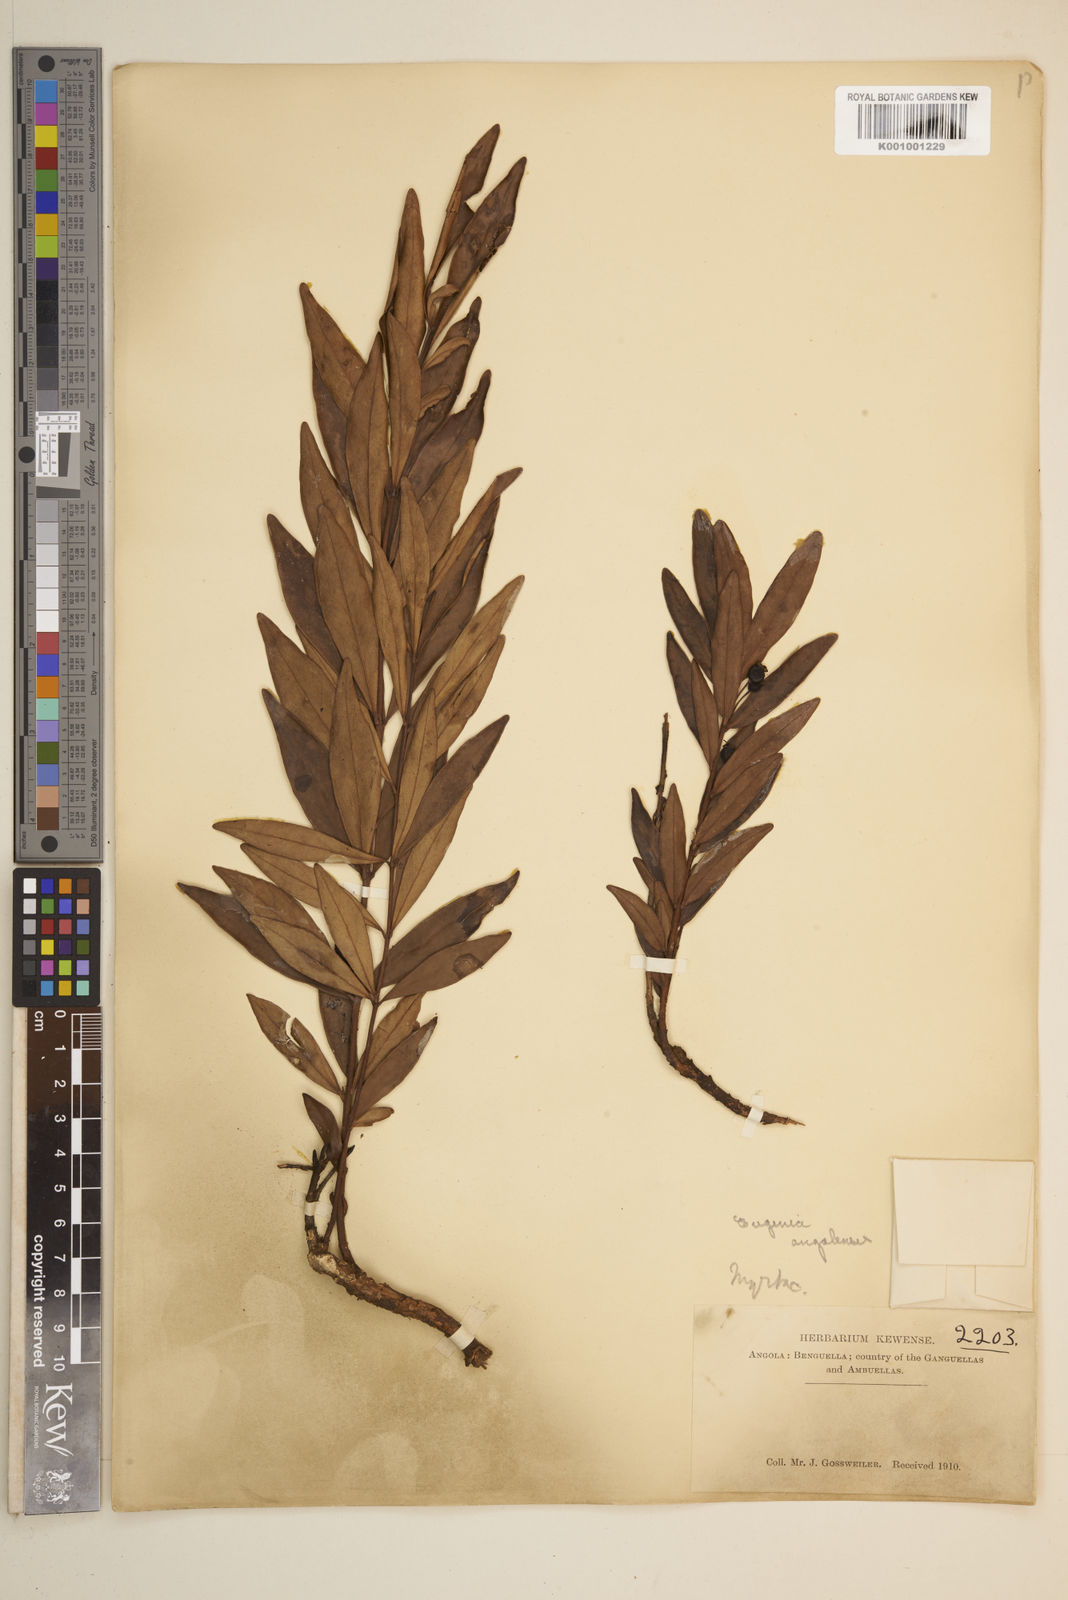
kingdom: Plantae
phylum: Tracheophyta
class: Magnoliopsida
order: Myrtales
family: Myrtaceae
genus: Eugenia
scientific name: Eugenia malangensis
